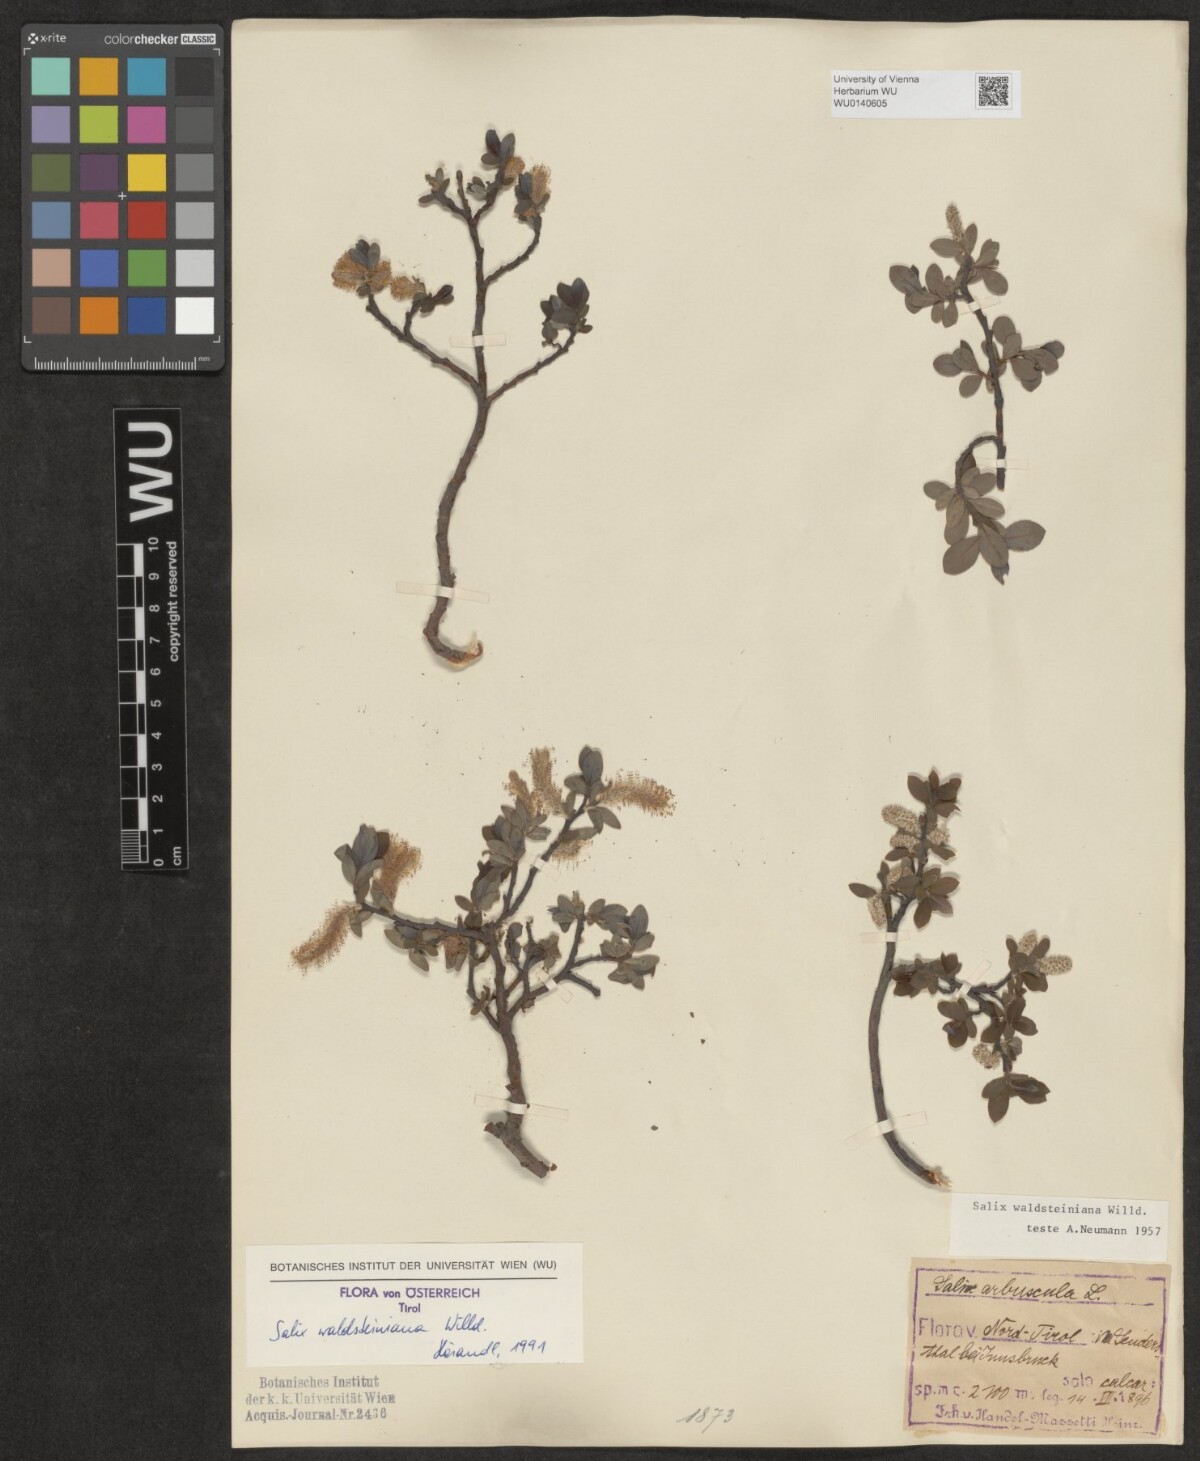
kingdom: Plantae
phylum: Tracheophyta
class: Magnoliopsida
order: Malpighiales
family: Salicaceae
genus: Salix
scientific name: Salix waldsteiniana
